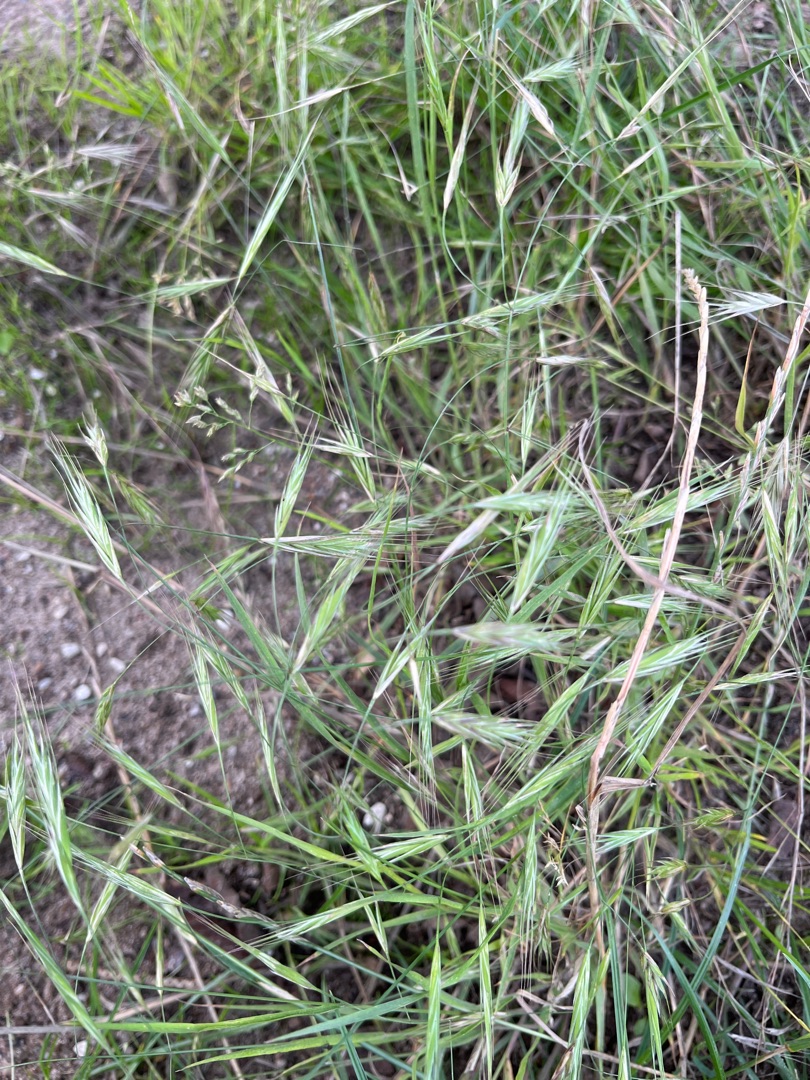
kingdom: Plantae
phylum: Tracheophyta
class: Liliopsida
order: Poales
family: Poaceae
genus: Bromus
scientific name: Bromus sterilis
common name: Gold hejre
